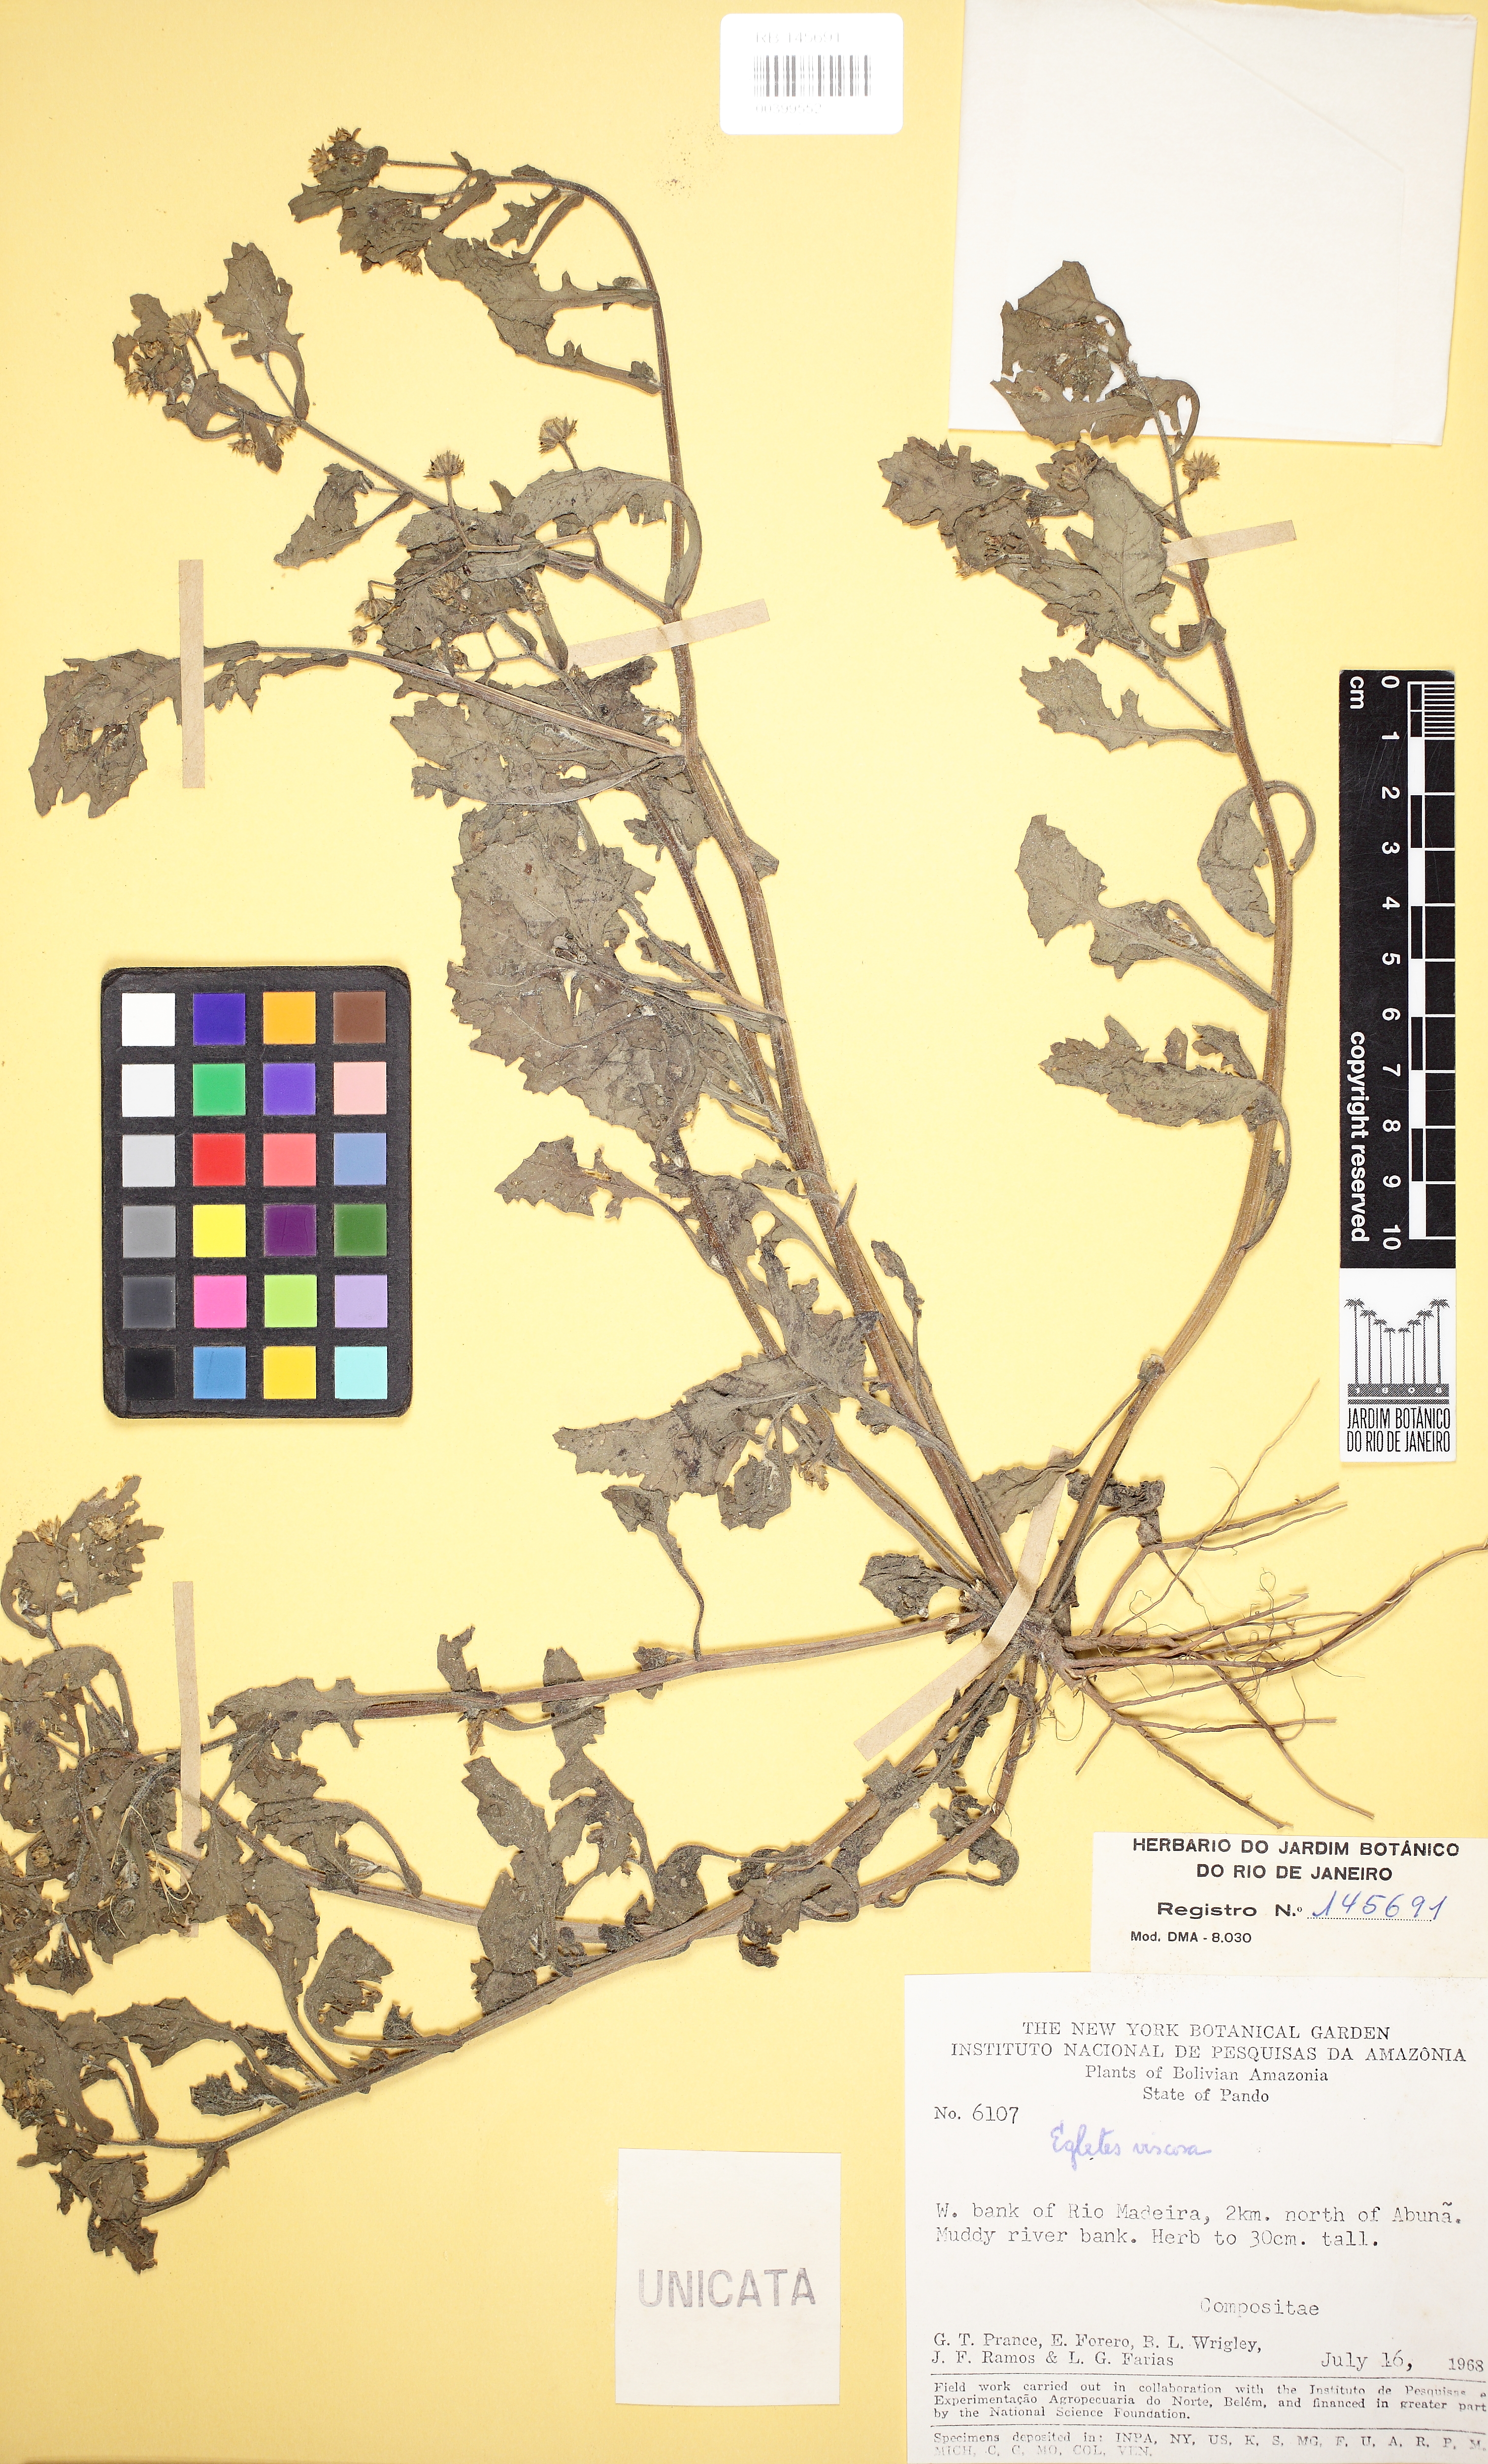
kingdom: Plantae
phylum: Tracheophyta
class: Magnoliopsida
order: Asterales
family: Asteraceae
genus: Egletes
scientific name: Egletes viscosa
